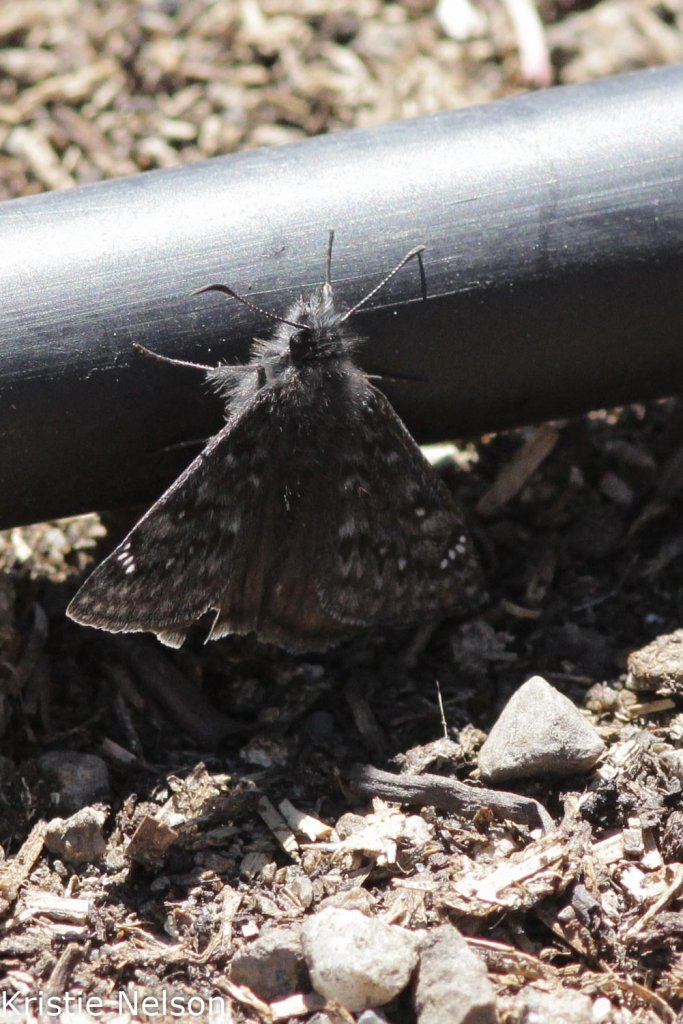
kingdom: Animalia
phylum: Arthropoda
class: Insecta
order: Lepidoptera
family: Hesperiidae
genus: Gesta
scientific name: Gesta
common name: Persius Duskywing
